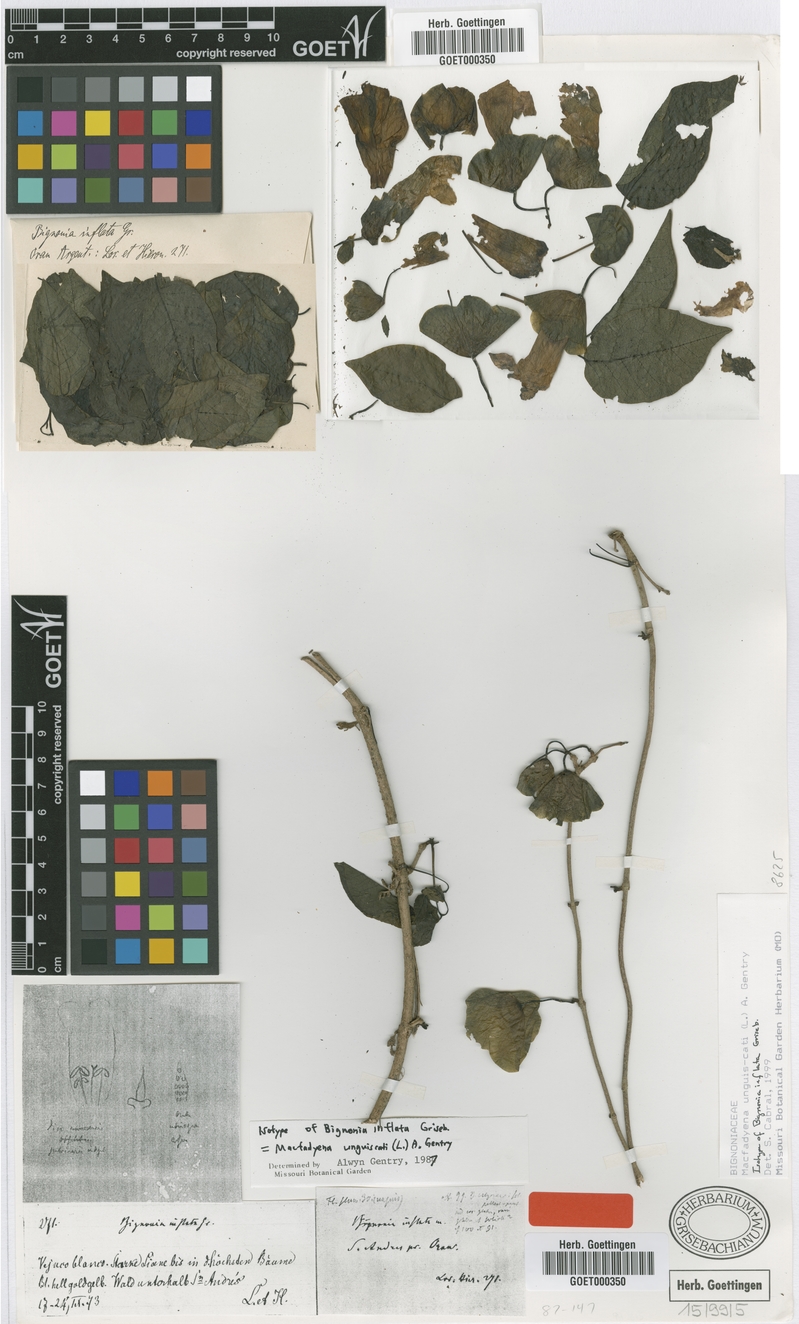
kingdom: Plantae
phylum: Tracheophyta
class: Magnoliopsida
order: Lamiales
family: Bignoniaceae
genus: Dolichandra
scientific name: Dolichandra unguis-cati
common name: Catclaw vine
